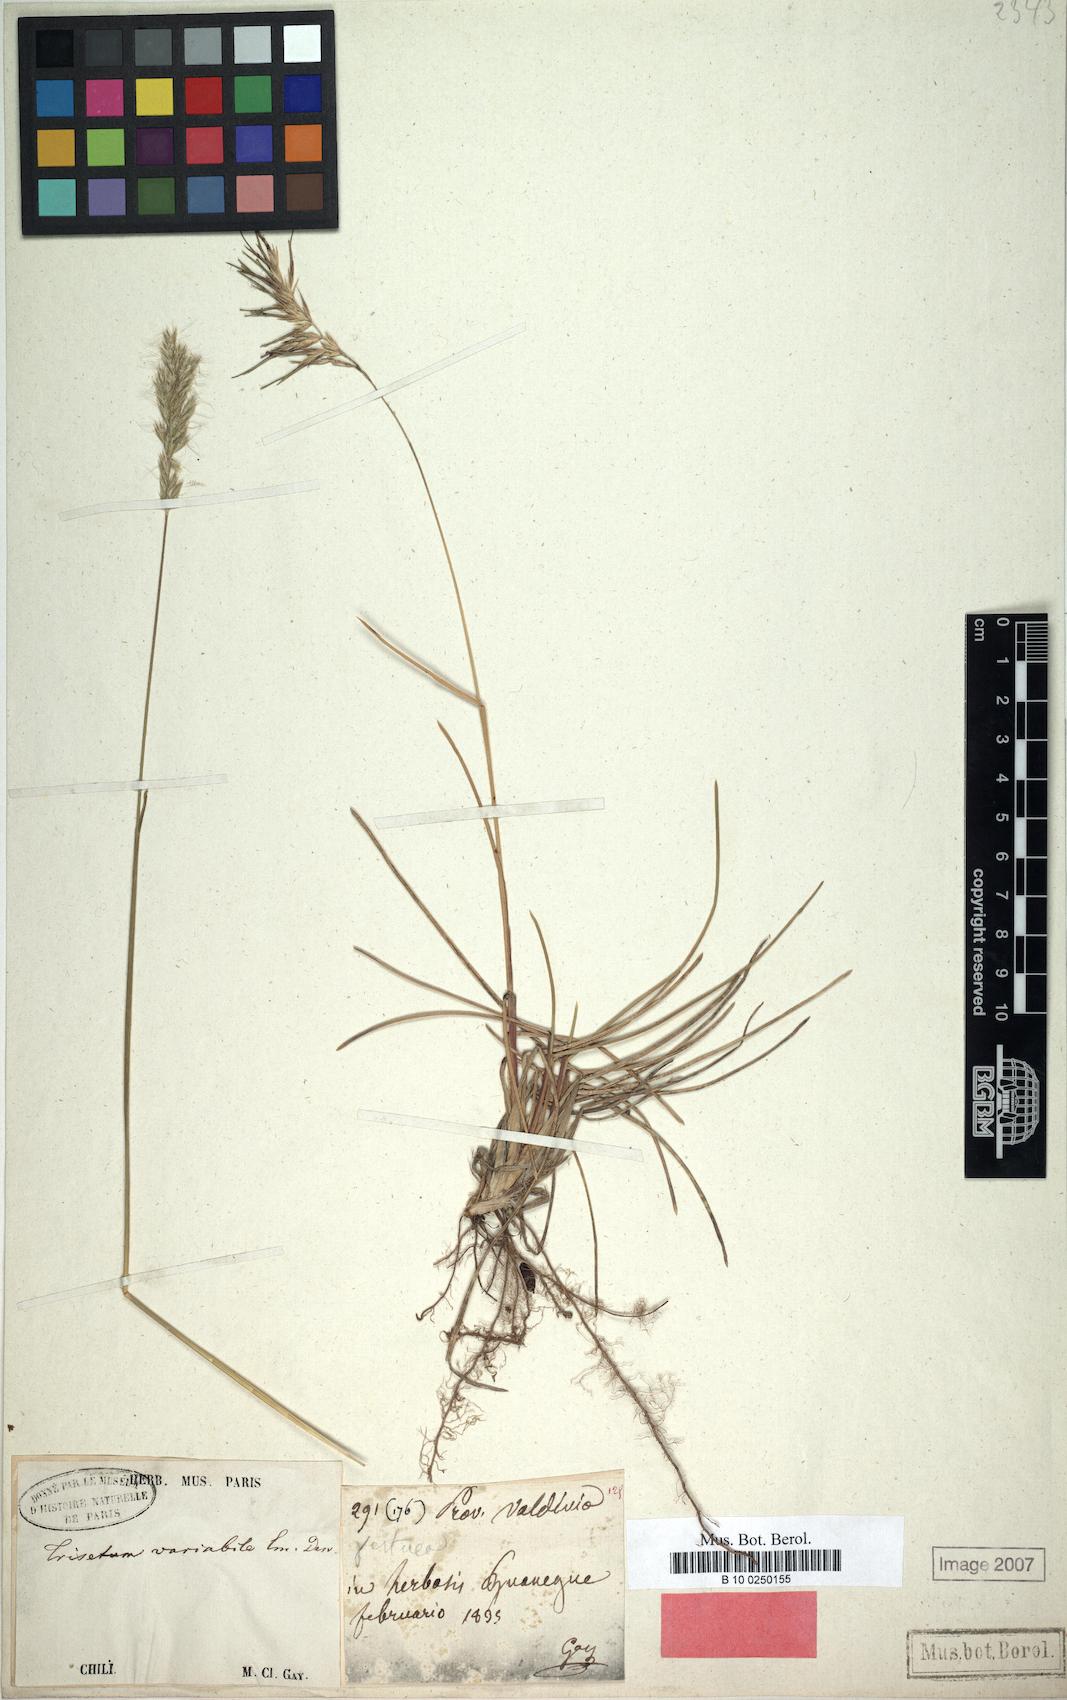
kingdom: Plantae
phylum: Tracheophyta
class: Liliopsida
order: Poales
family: Poaceae
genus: Koeleria
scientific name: Koeleria spicata
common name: Mountain trisetum
